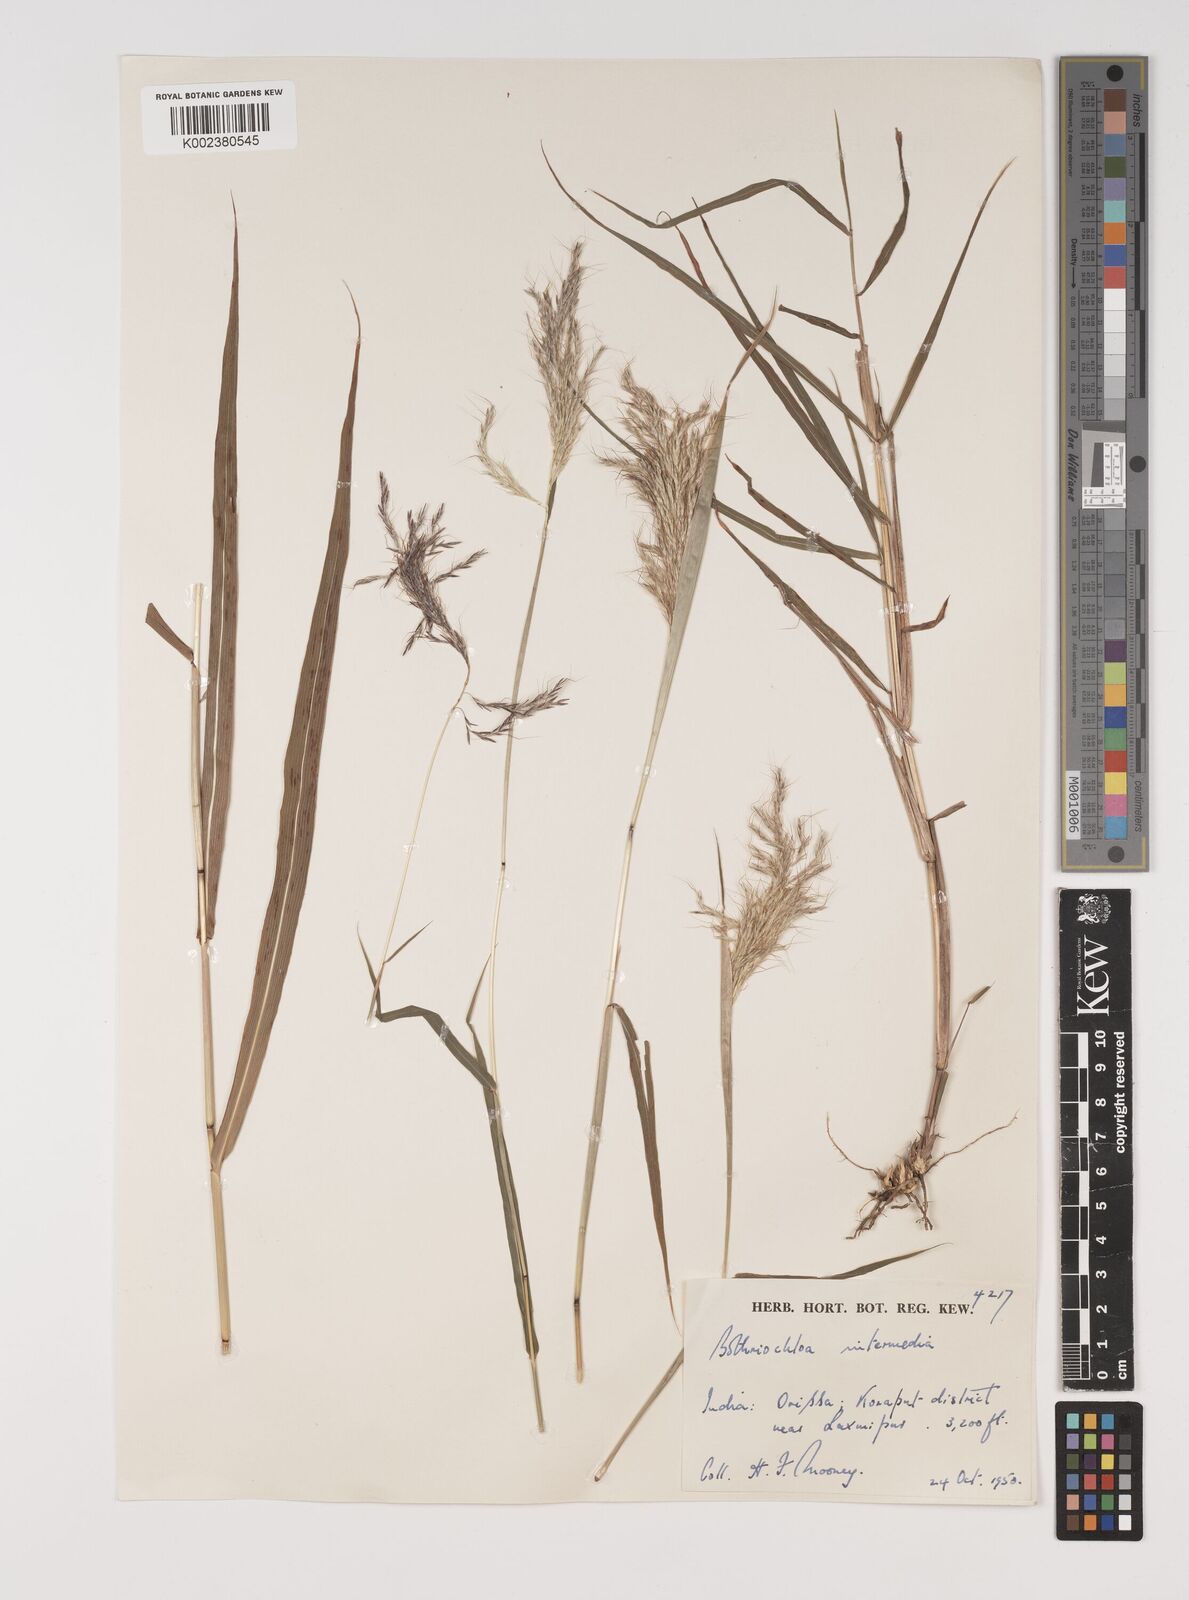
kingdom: Plantae
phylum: Tracheophyta
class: Liliopsida
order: Poales
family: Poaceae
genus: Bothriochloa
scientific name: Bothriochloa bladhii
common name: Caucasian bluestem
